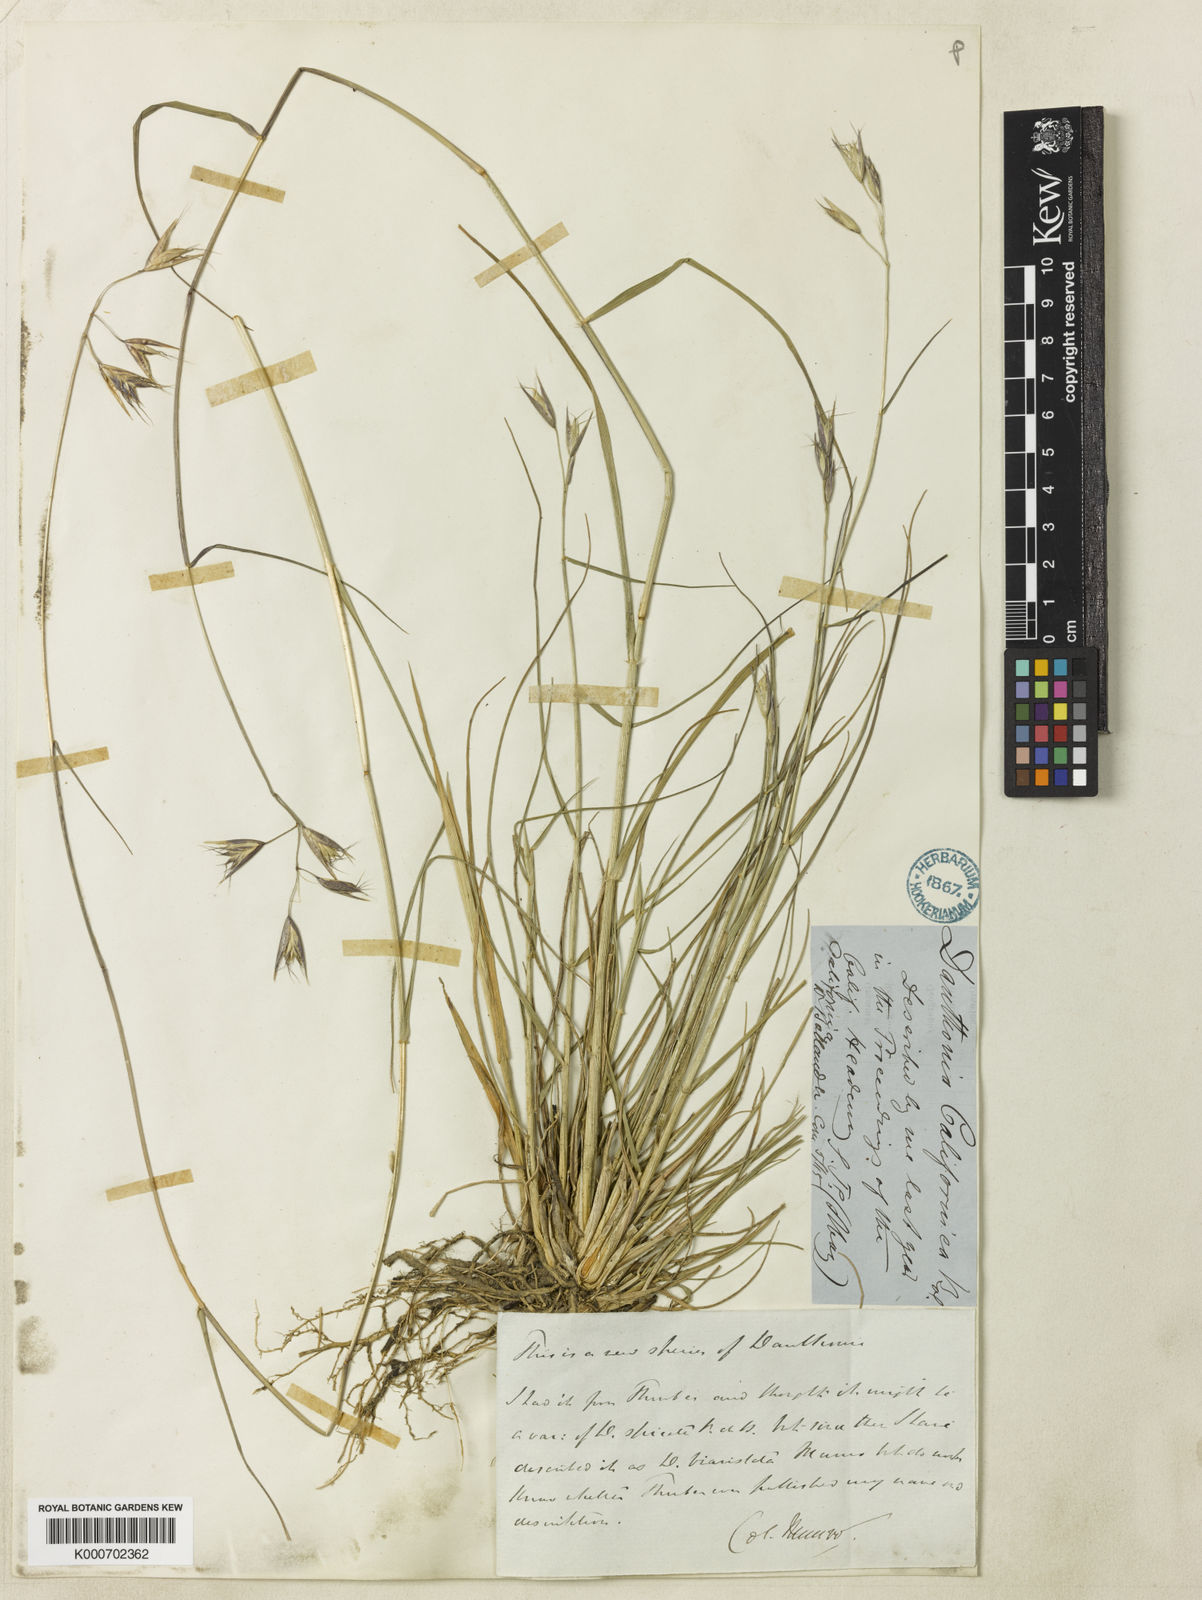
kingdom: Plantae
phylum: Tracheophyta
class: Liliopsida
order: Poales
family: Poaceae
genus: Danthonia
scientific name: Danthonia californica
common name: California oat grass
